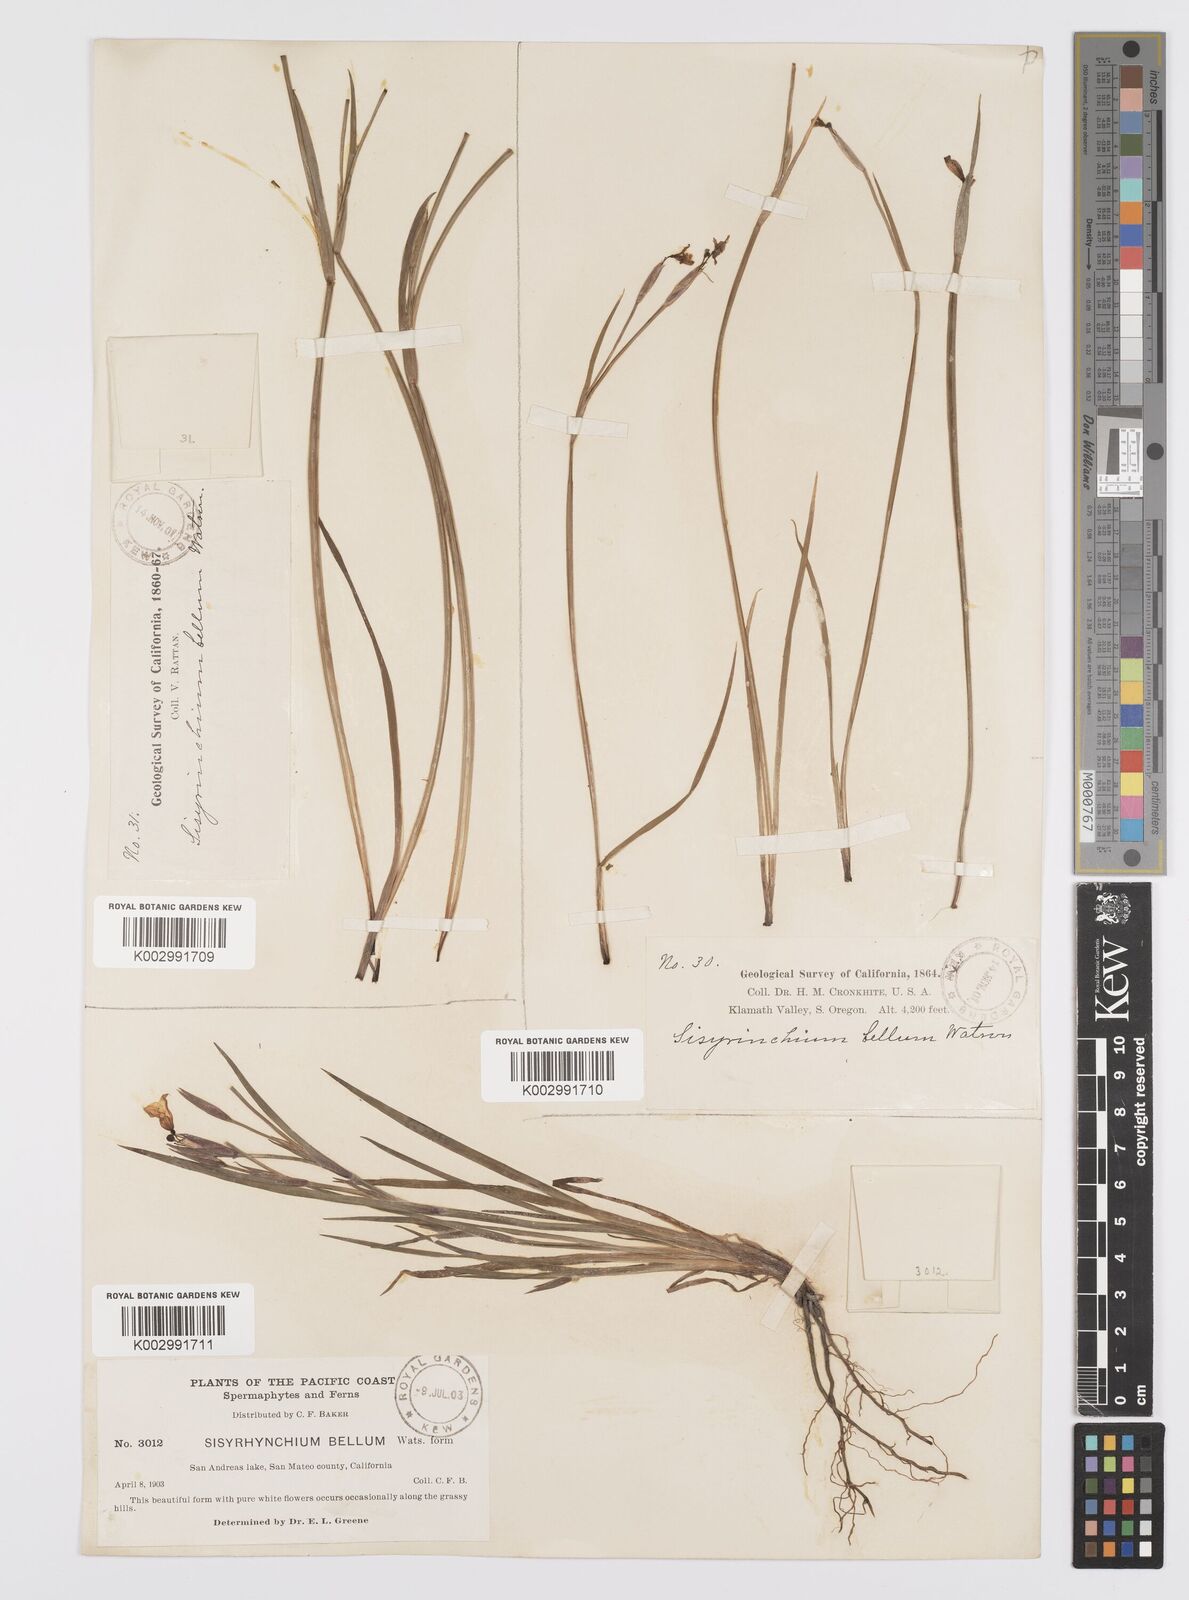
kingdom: Plantae
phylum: Tracheophyta
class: Liliopsida
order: Asparagales
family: Iridaceae
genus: Sisyrinchium
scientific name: Sisyrinchium bellum
